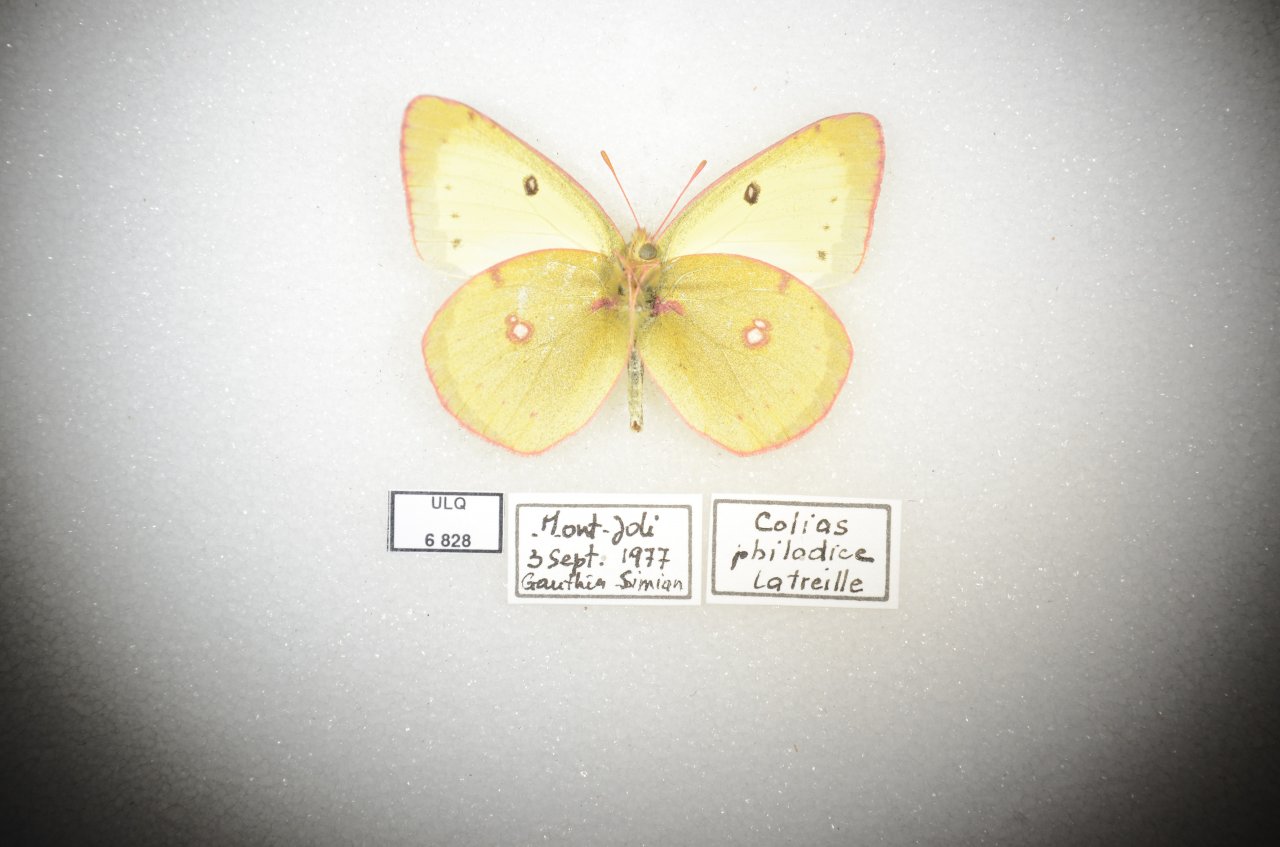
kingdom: Animalia
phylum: Arthropoda
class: Insecta
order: Lepidoptera
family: Pieridae
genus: Colias
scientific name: Colias philodice
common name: Clouded Sulphur
